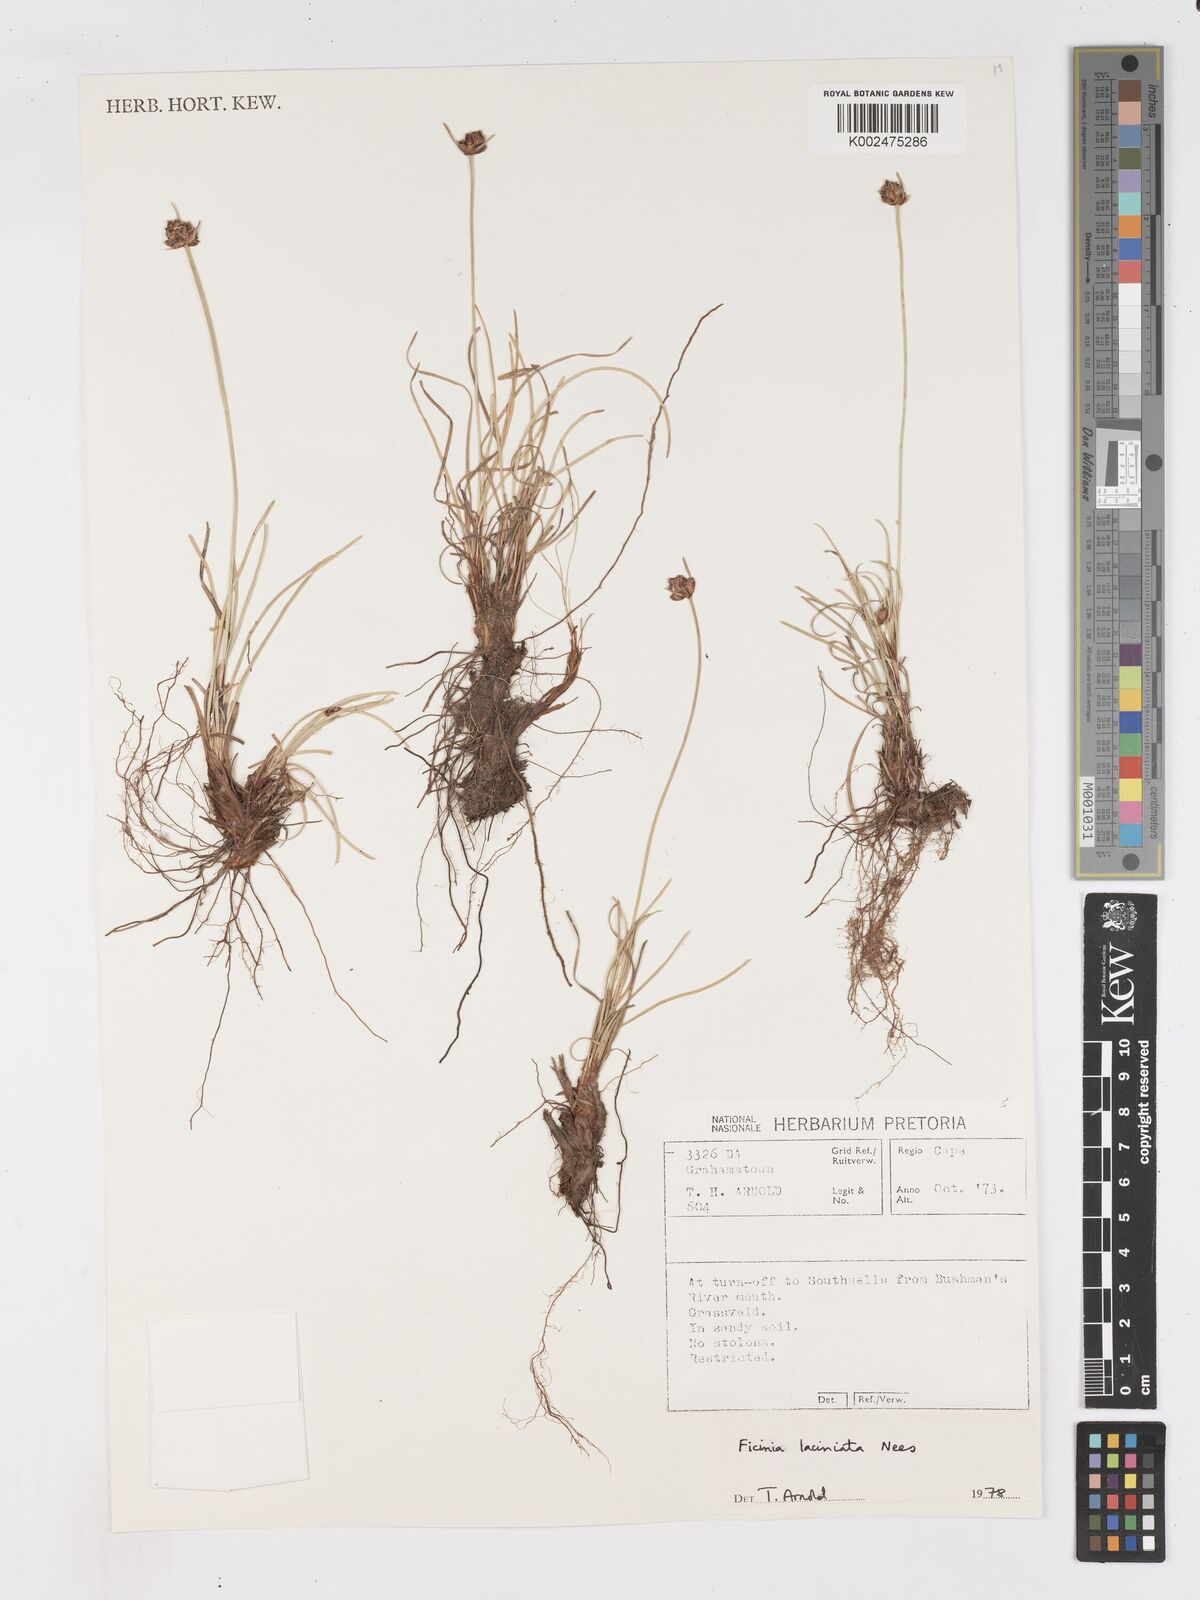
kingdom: Plantae
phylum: Tracheophyta
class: Liliopsida
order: Poales
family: Cyperaceae
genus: Ficinia
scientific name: Ficinia laciniata
